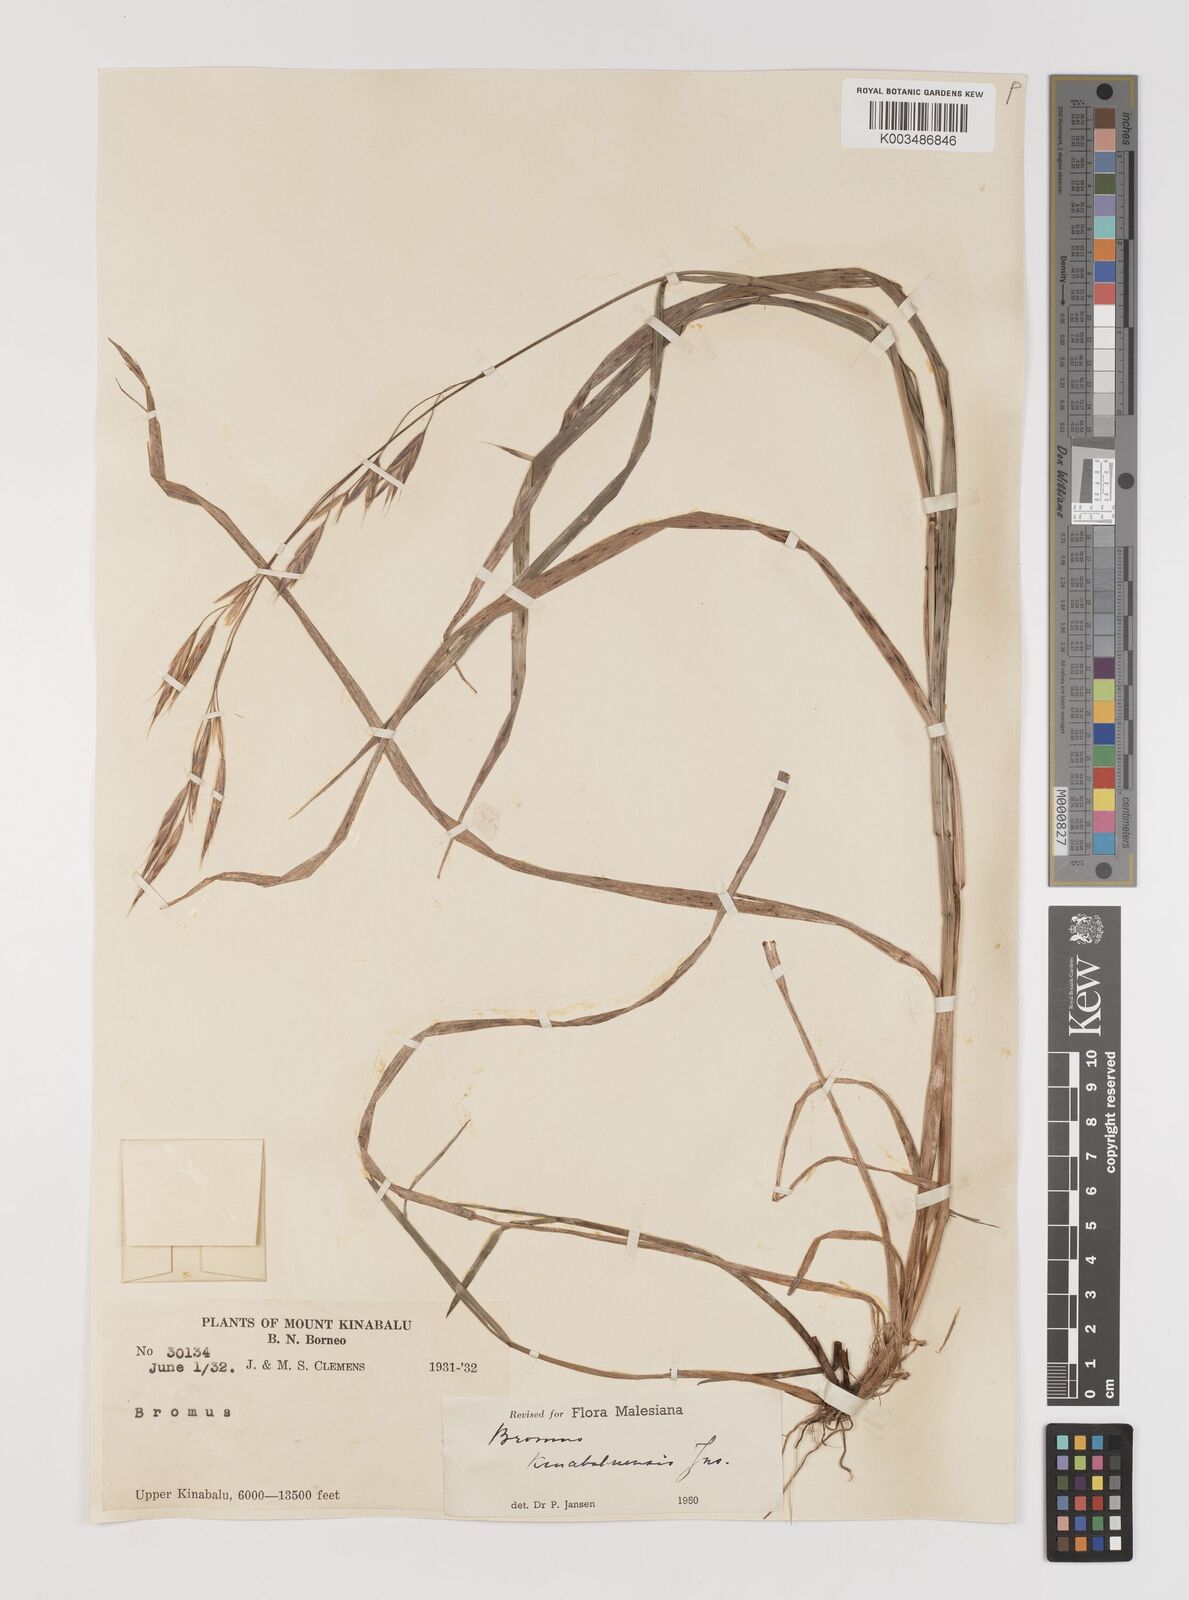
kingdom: Plantae
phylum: Tracheophyta
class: Liliopsida
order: Poales
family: Poaceae
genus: Bromus
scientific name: Bromus formosanus
